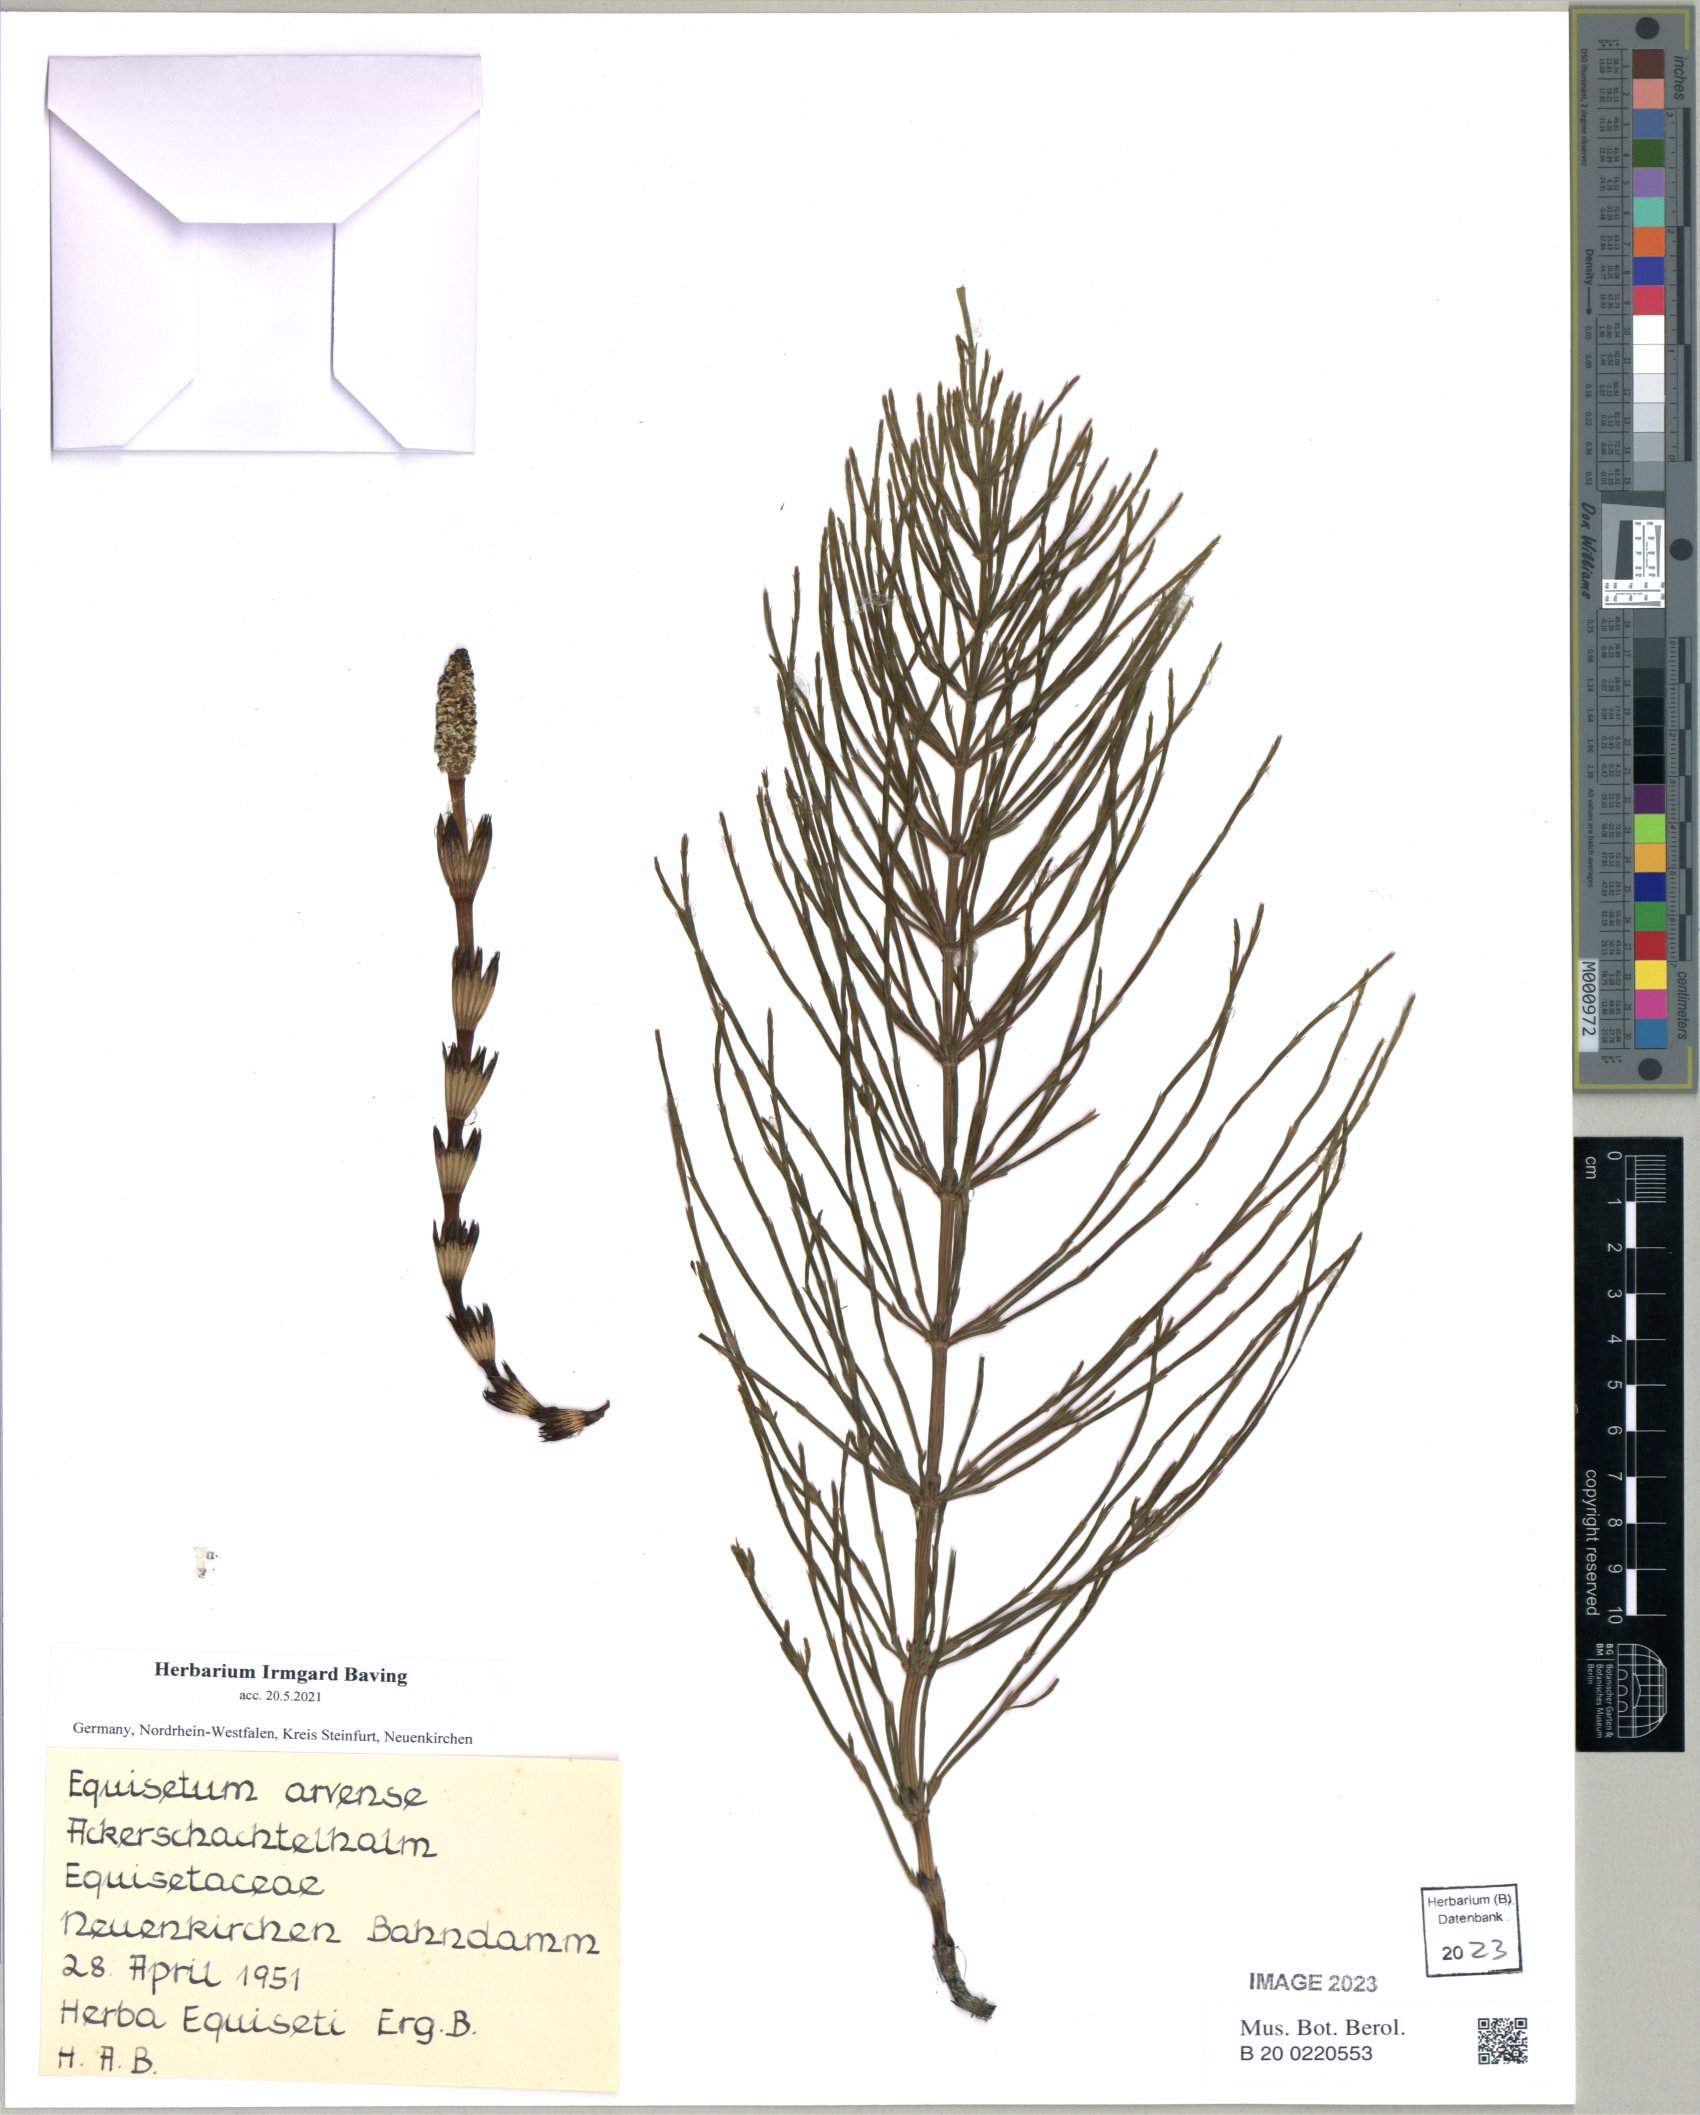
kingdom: Plantae
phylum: Tracheophyta
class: Polypodiopsida
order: Equisetales
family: Equisetaceae
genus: Equisetum
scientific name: Equisetum arvense
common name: Field horsetail
